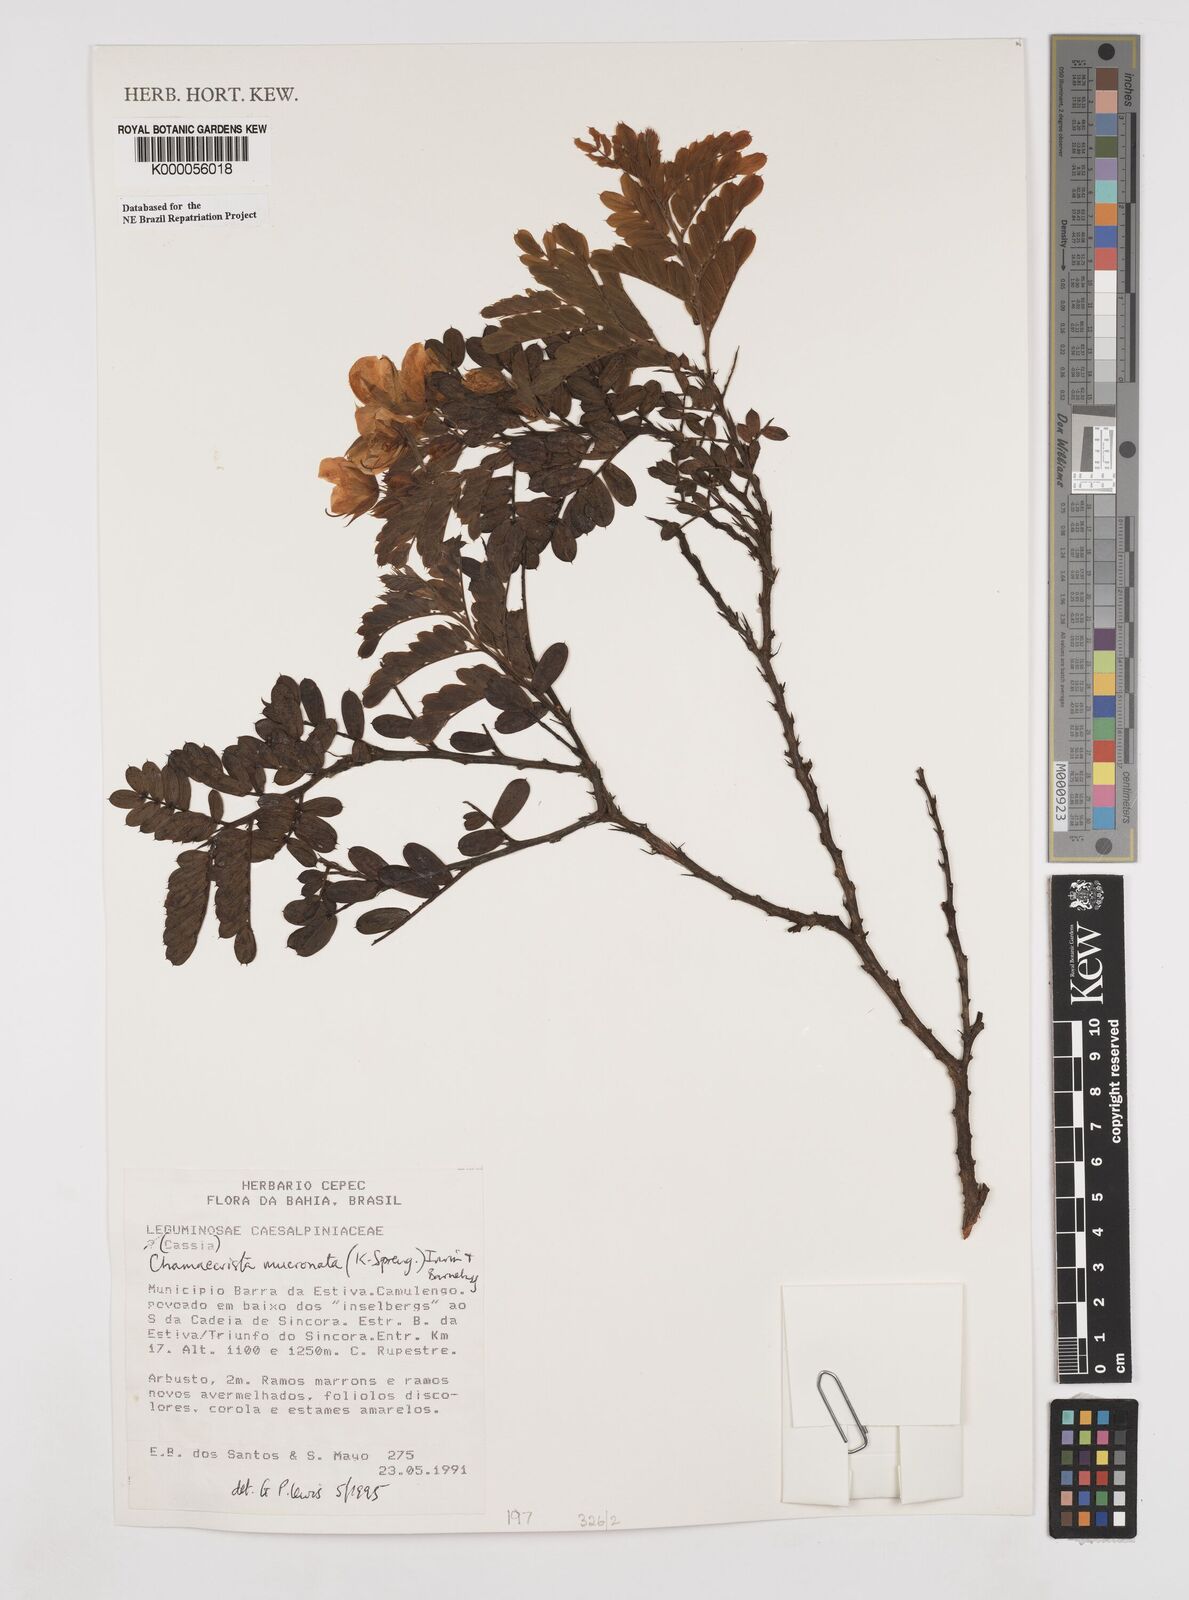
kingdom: Plantae
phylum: Tracheophyta
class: Magnoliopsida
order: Fabales
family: Fabaceae
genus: Chamaecrista
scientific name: Chamaecrista mucronata
